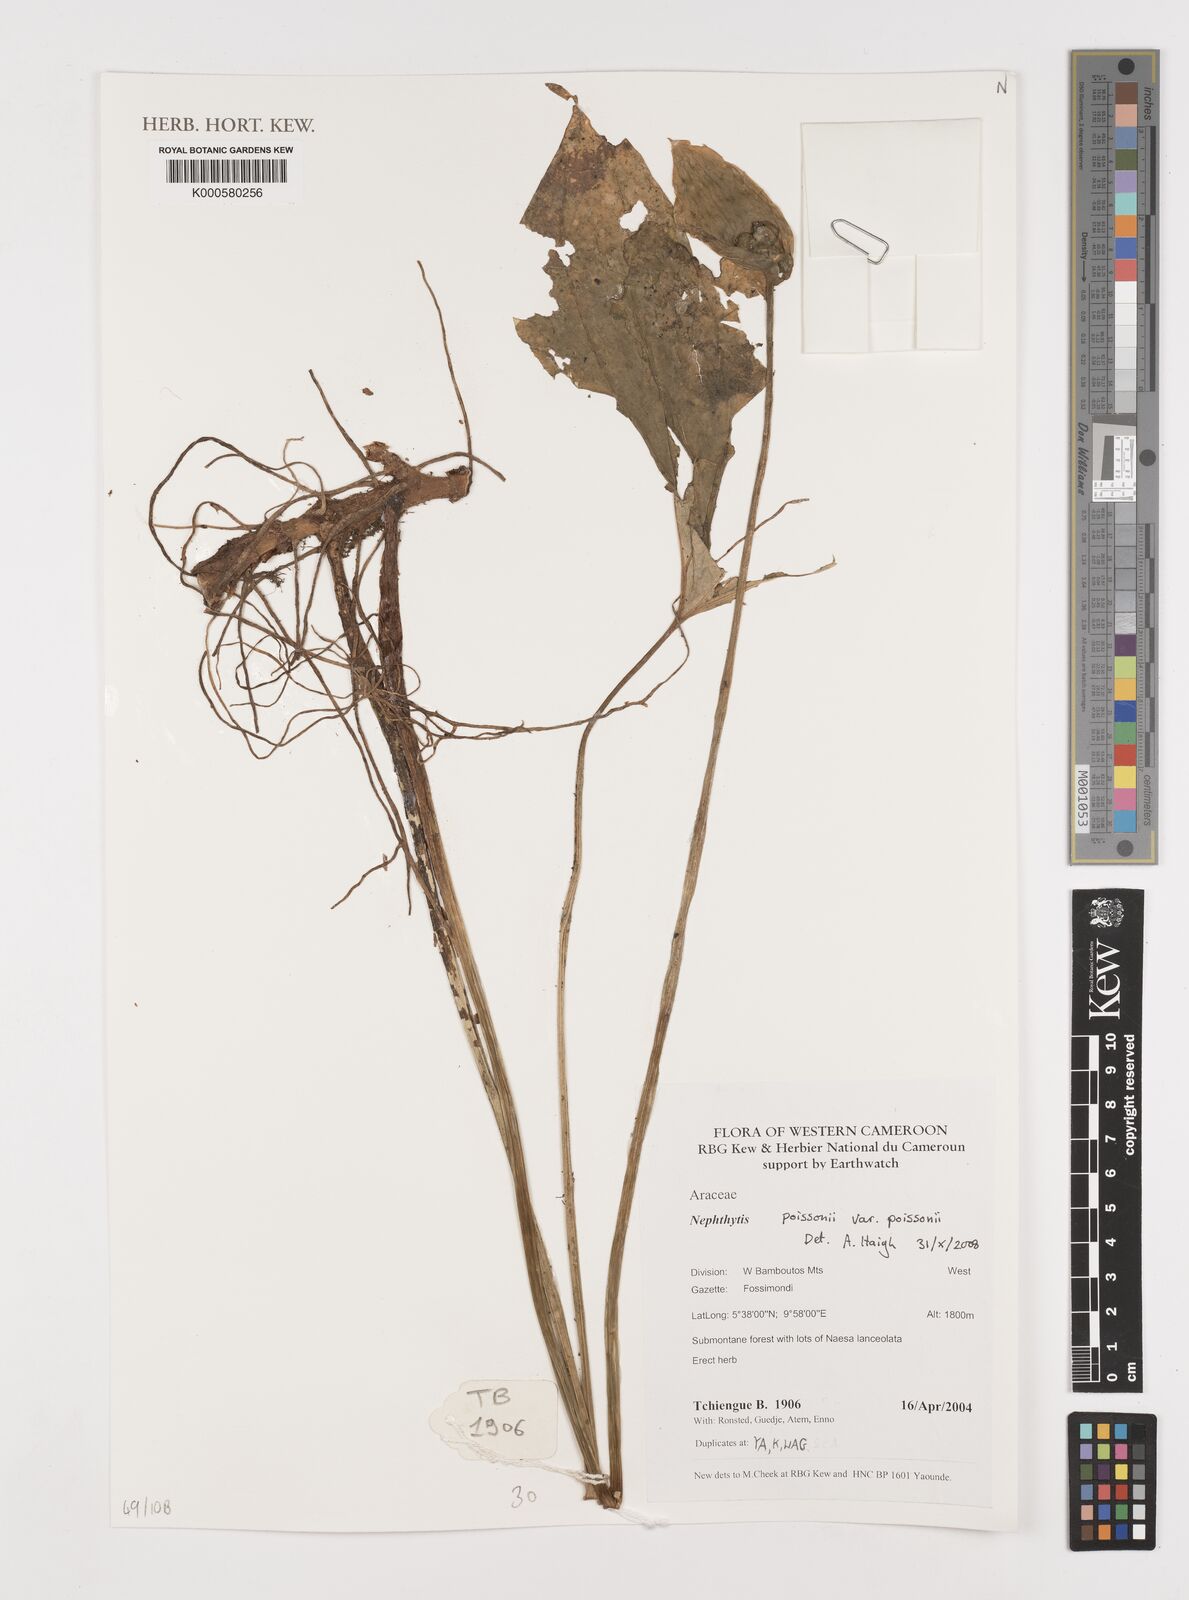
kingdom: Plantae
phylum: Tracheophyta
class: Liliopsida
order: Alismatales
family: Araceae
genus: Nephthytis
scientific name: Nephthytis poissonii
